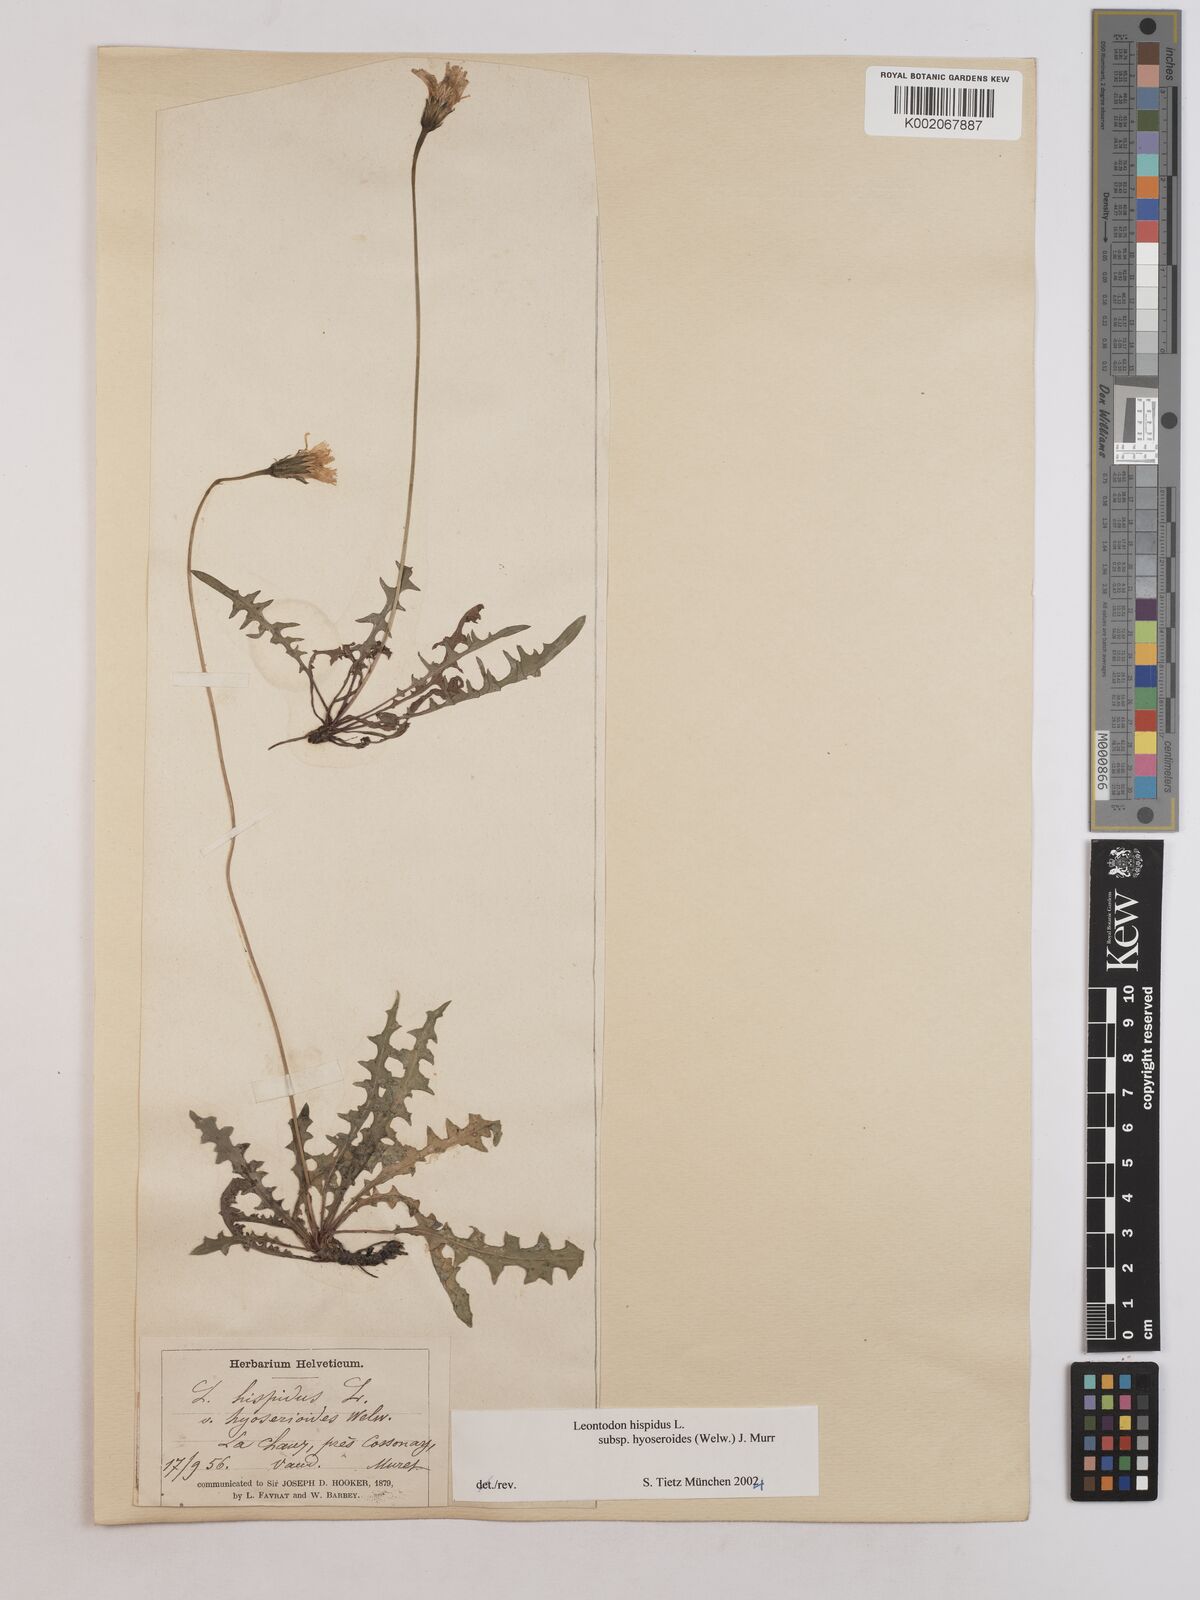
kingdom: Plantae
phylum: Tracheophyta
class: Magnoliopsida
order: Asterales
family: Asteraceae
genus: Leontodon
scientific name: Leontodon hispidus
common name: Rough hawkbit
